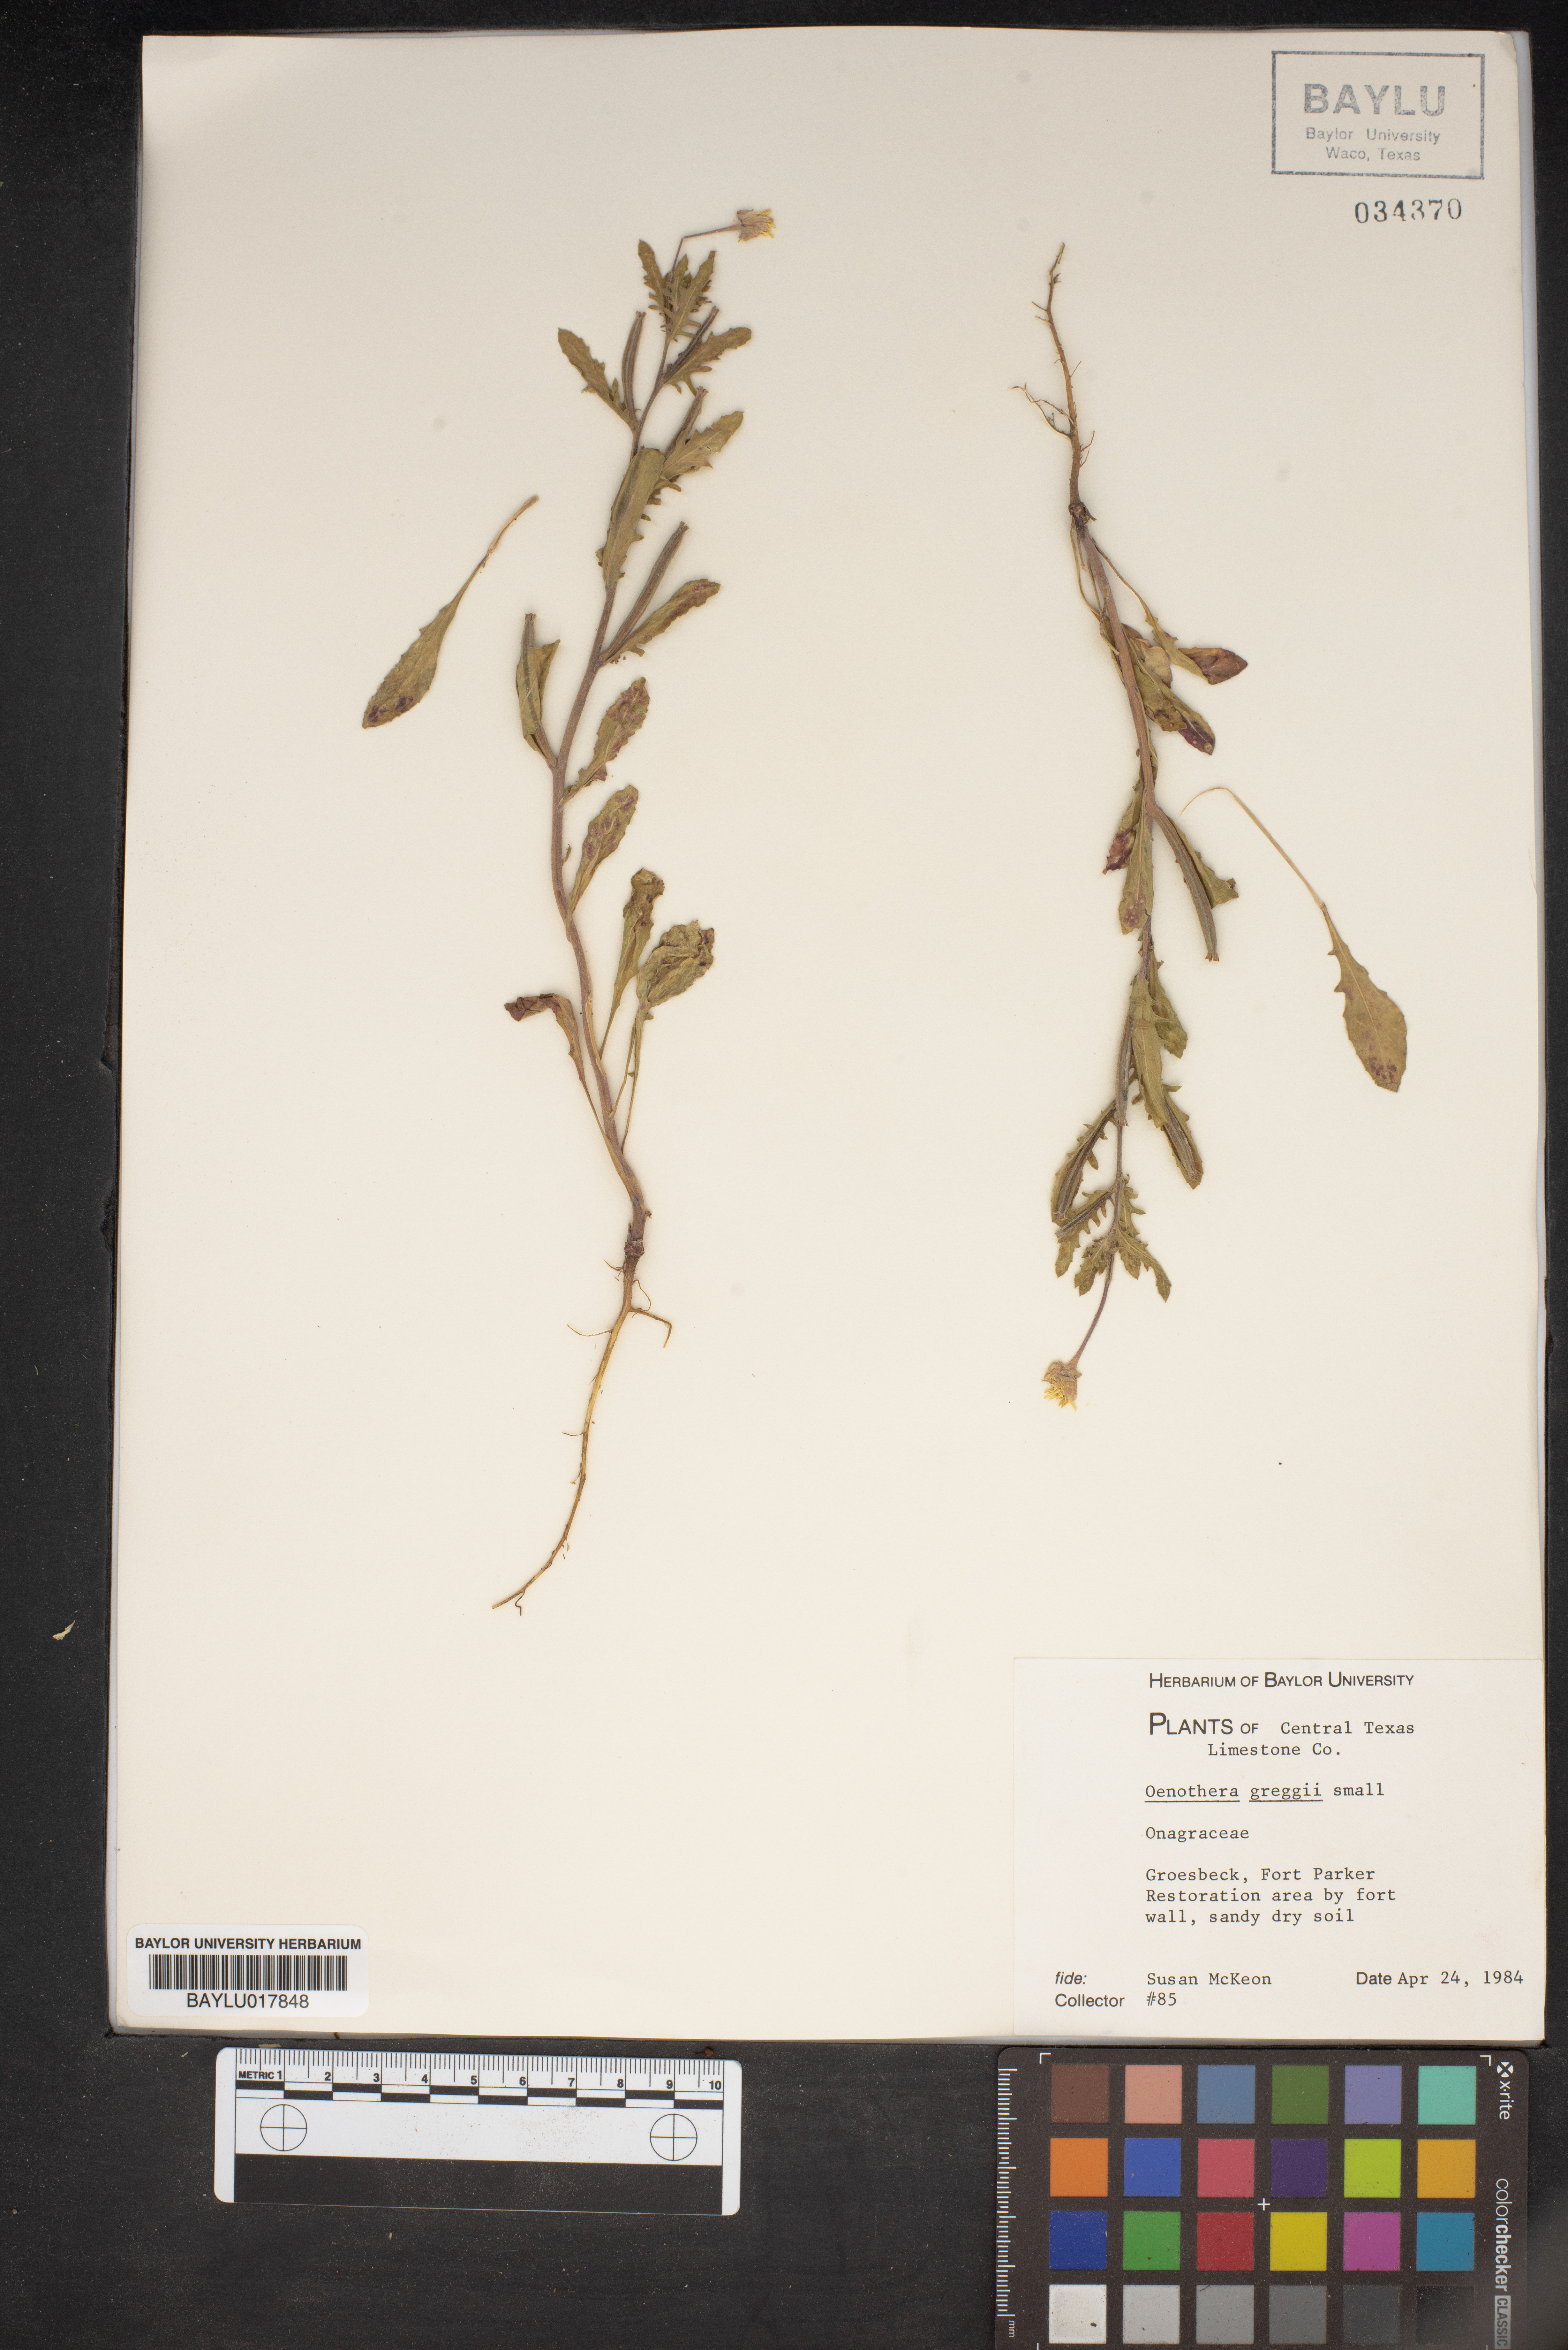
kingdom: Plantae
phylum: Tracheophyta
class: Magnoliopsida
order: Myrtales
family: Onagraceae
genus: Oenothera
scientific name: Oenothera hartwegii
